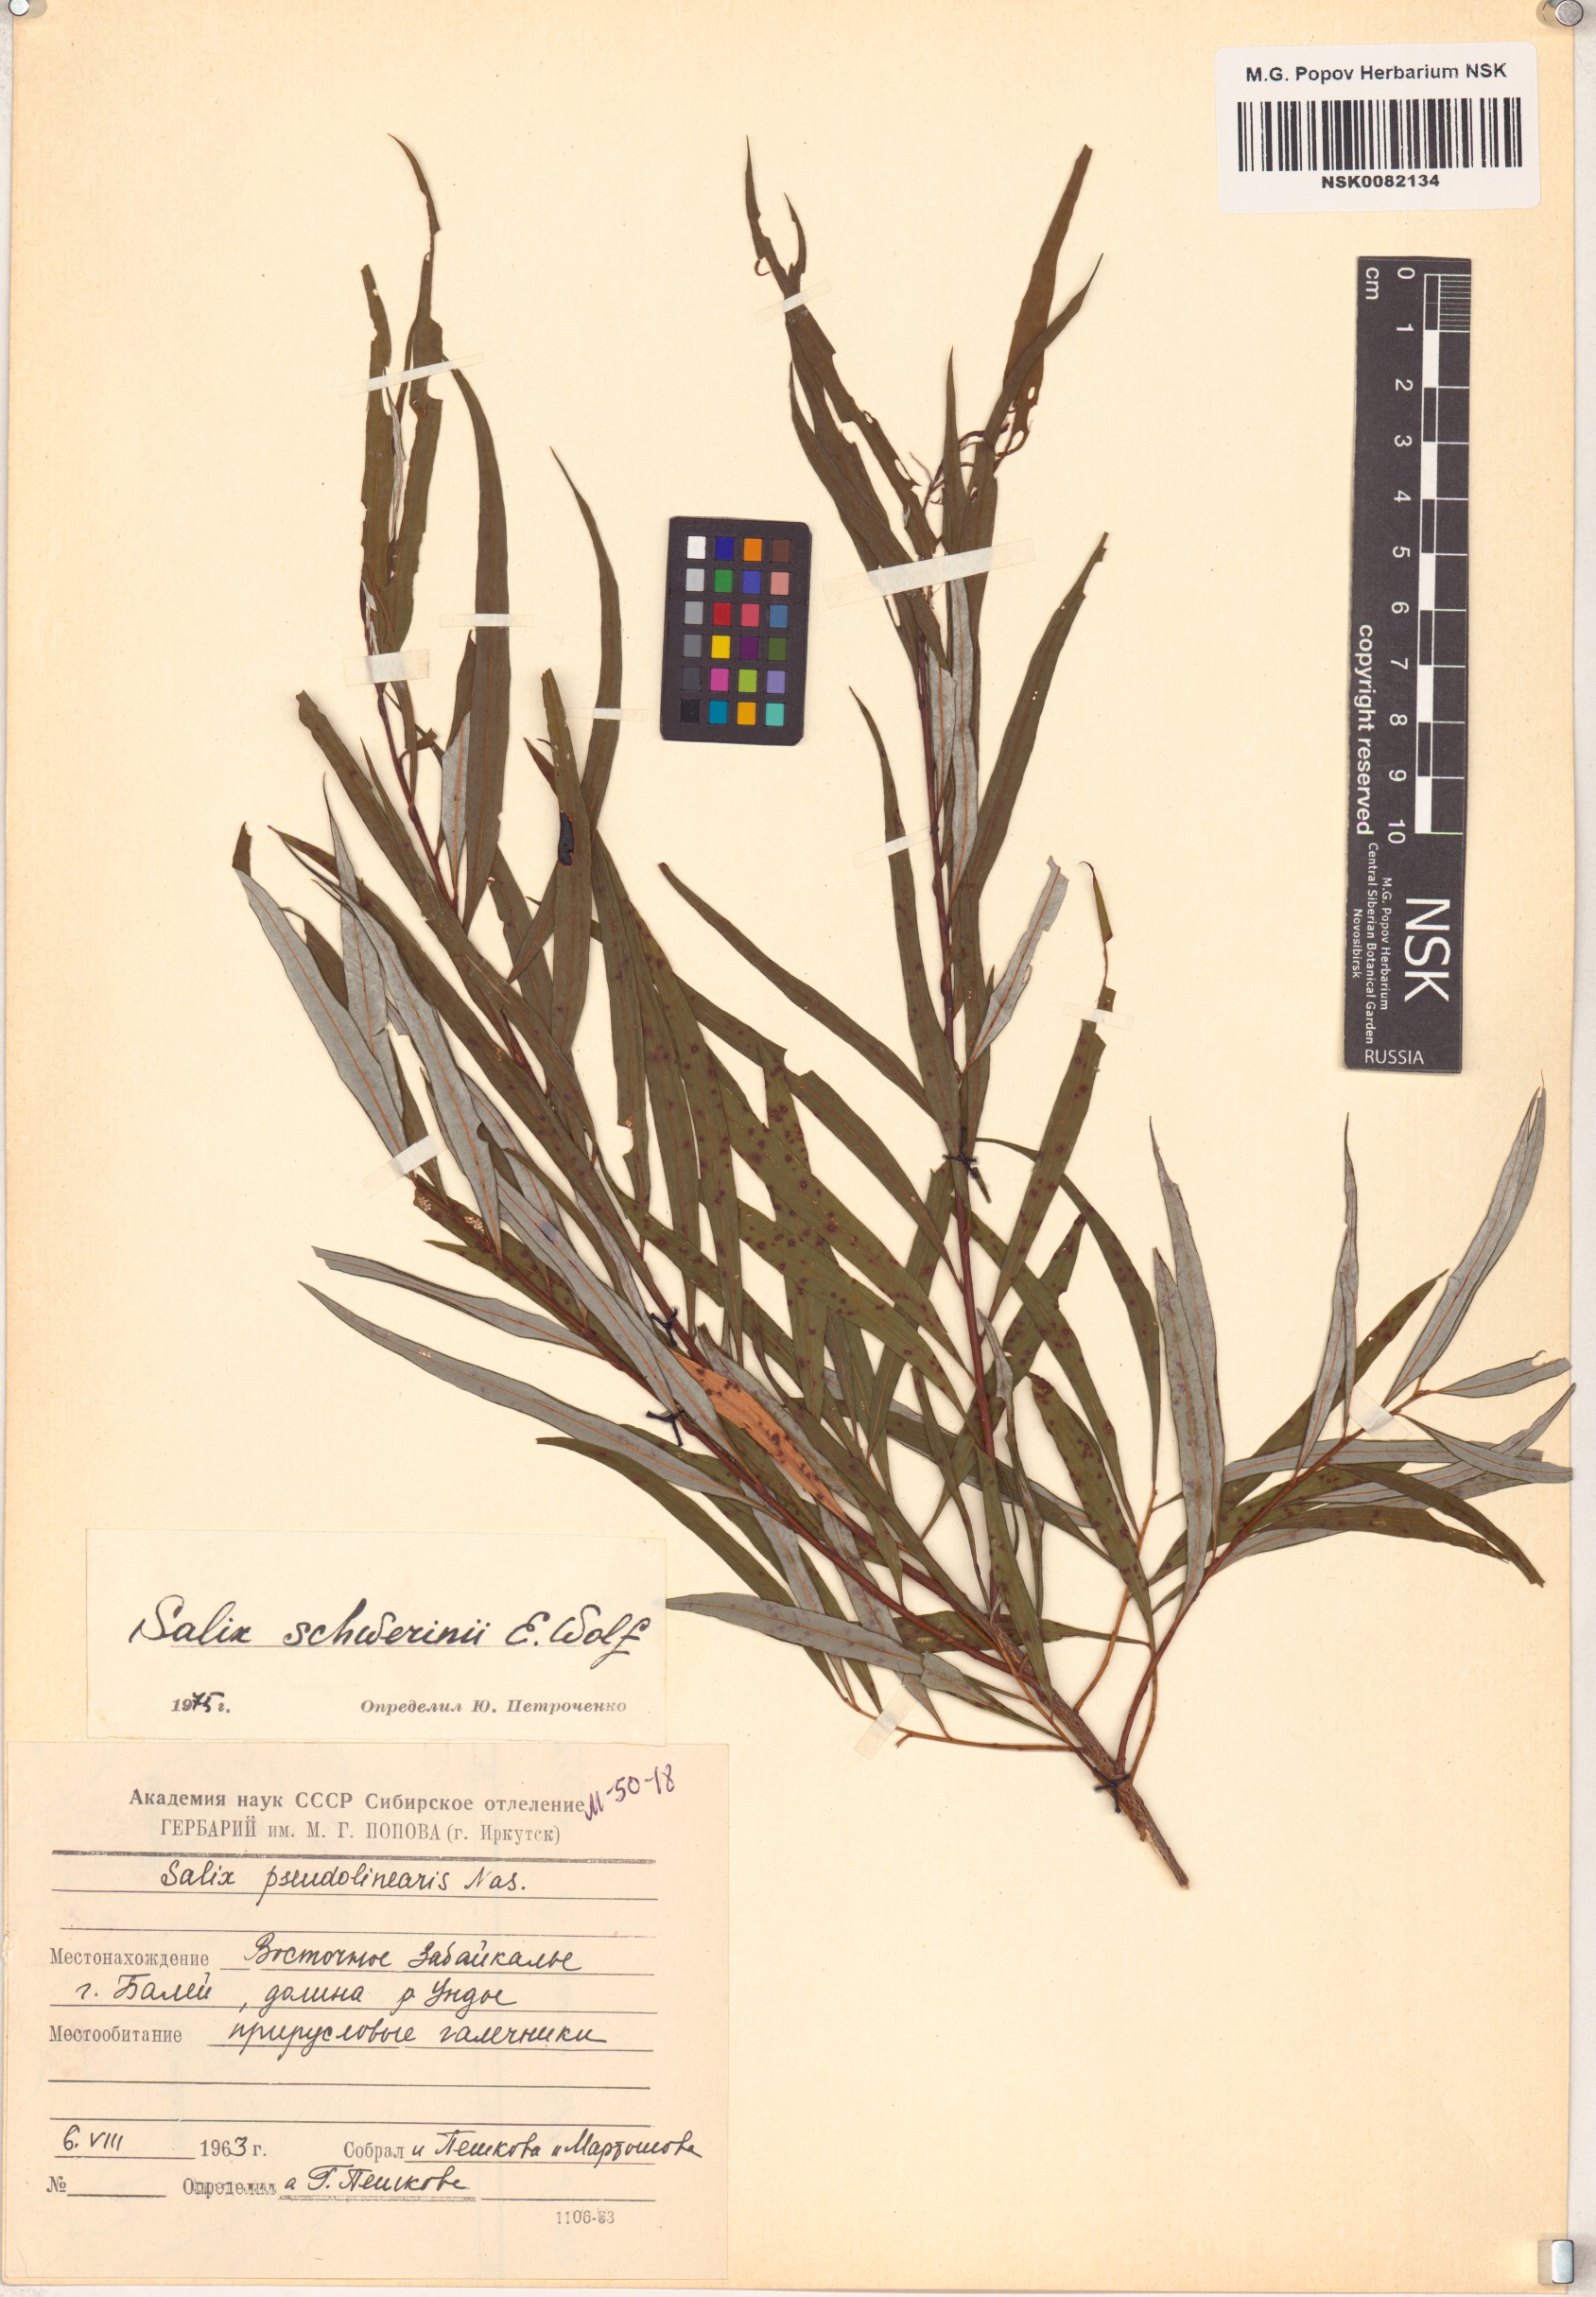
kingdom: Plantae
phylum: Tracheophyta
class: Magnoliopsida
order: Malpighiales
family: Salicaceae
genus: Salix
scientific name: Salix schwerinii
